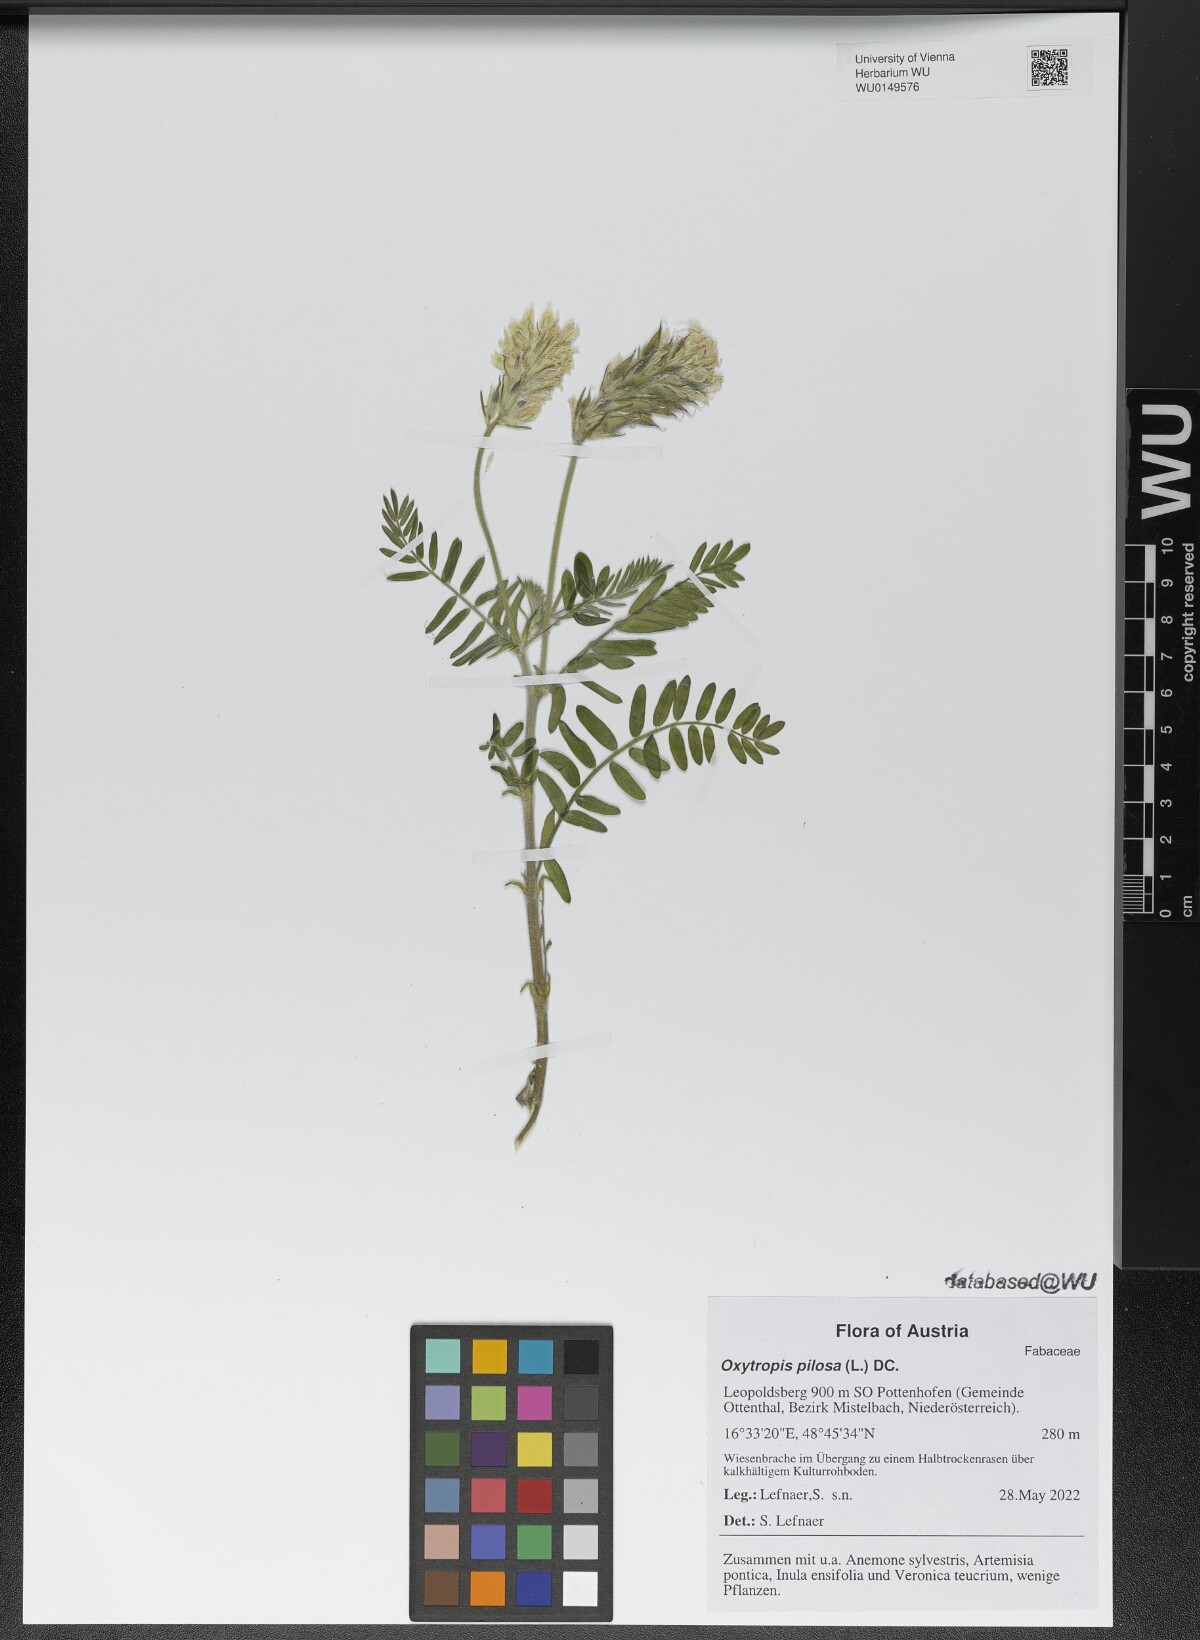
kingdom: Plantae
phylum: Tracheophyta
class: Magnoliopsida
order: Fabales
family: Fabaceae
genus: Oxytropis
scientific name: Oxytropis pilosa
